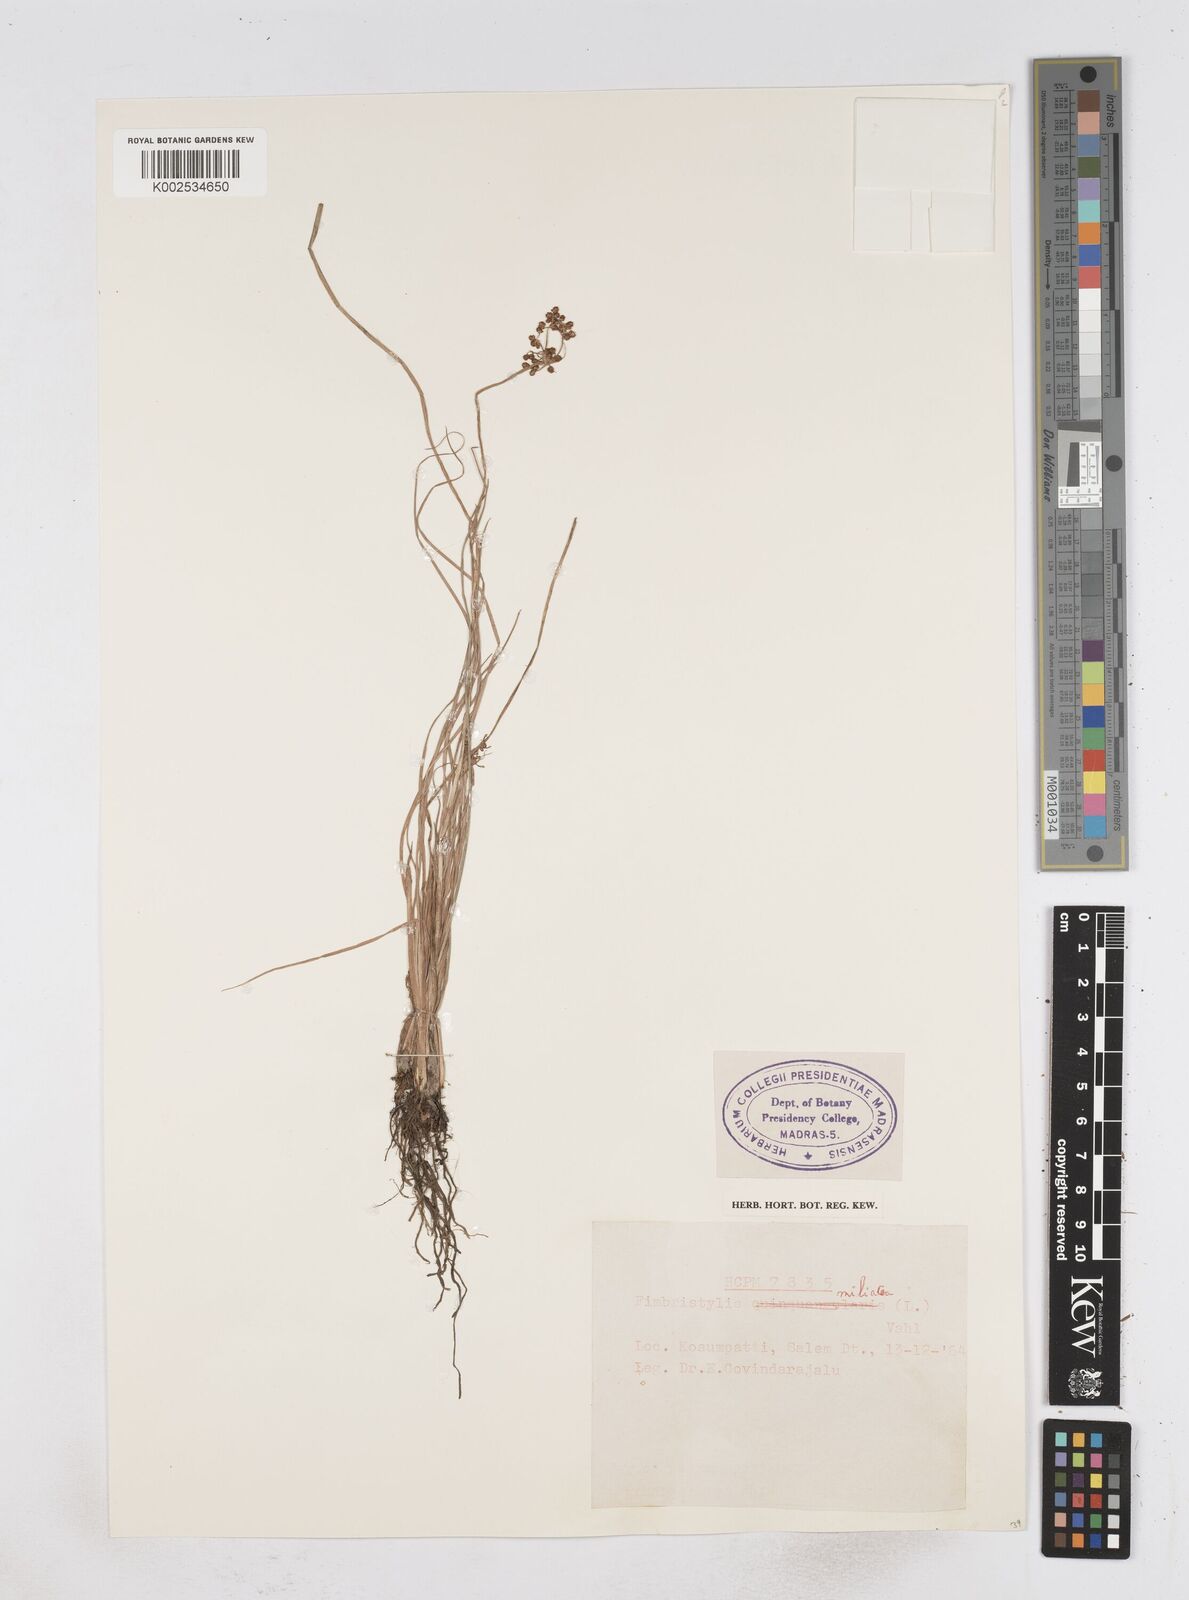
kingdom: Plantae
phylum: Tracheophyta
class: Liliopsida
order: Poales
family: Cyperaceae
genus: Fimbristylis
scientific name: Fimbristylis littoralis
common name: Fimbry
